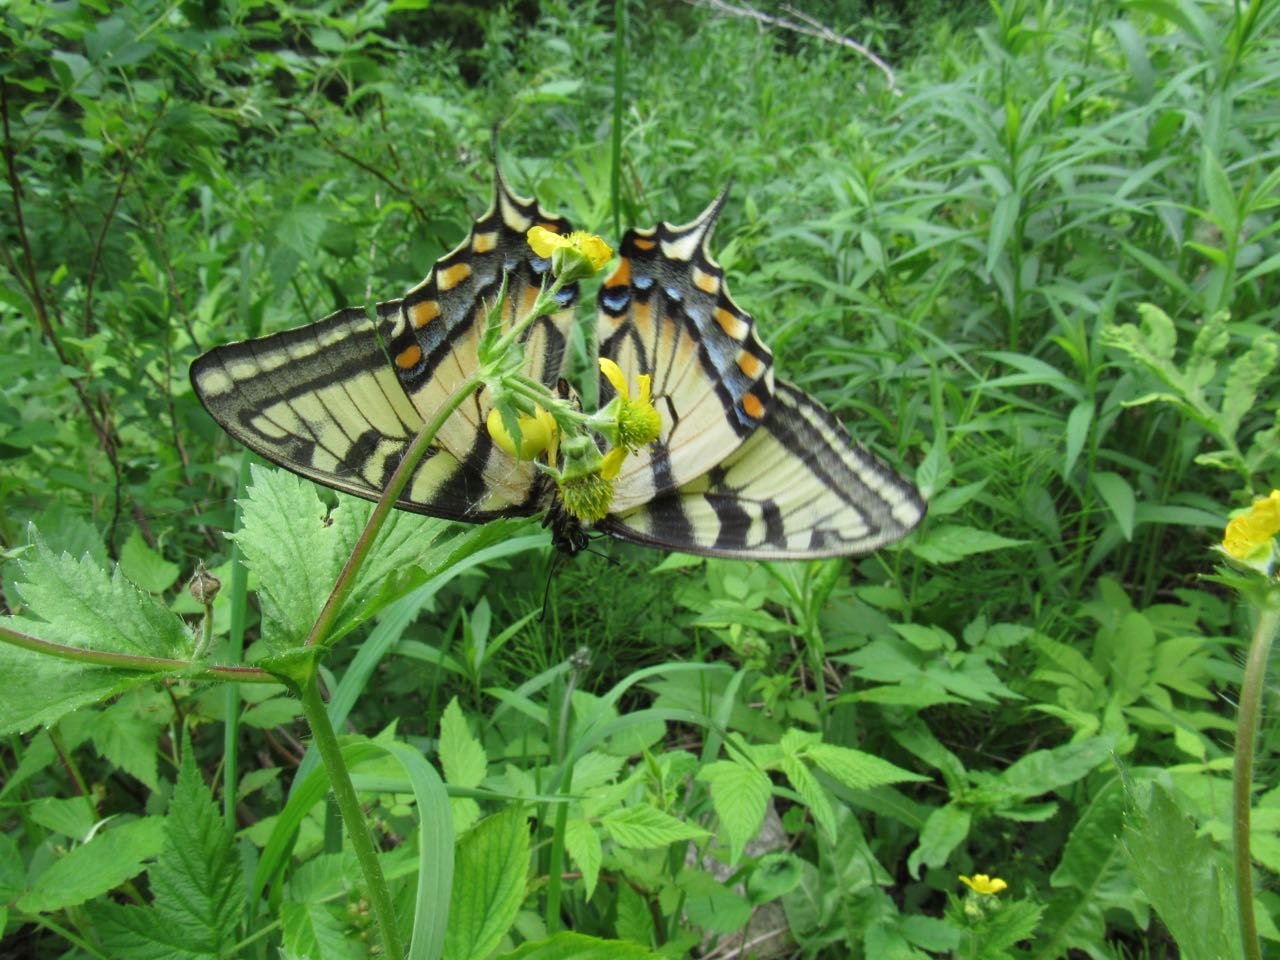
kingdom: Animalia
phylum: Arthropoda
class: Insecta
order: Lepidoptera
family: Papilionidae
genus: Pterourus
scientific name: Pterourus canadensis
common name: Canadian Tiger Swallowtail
